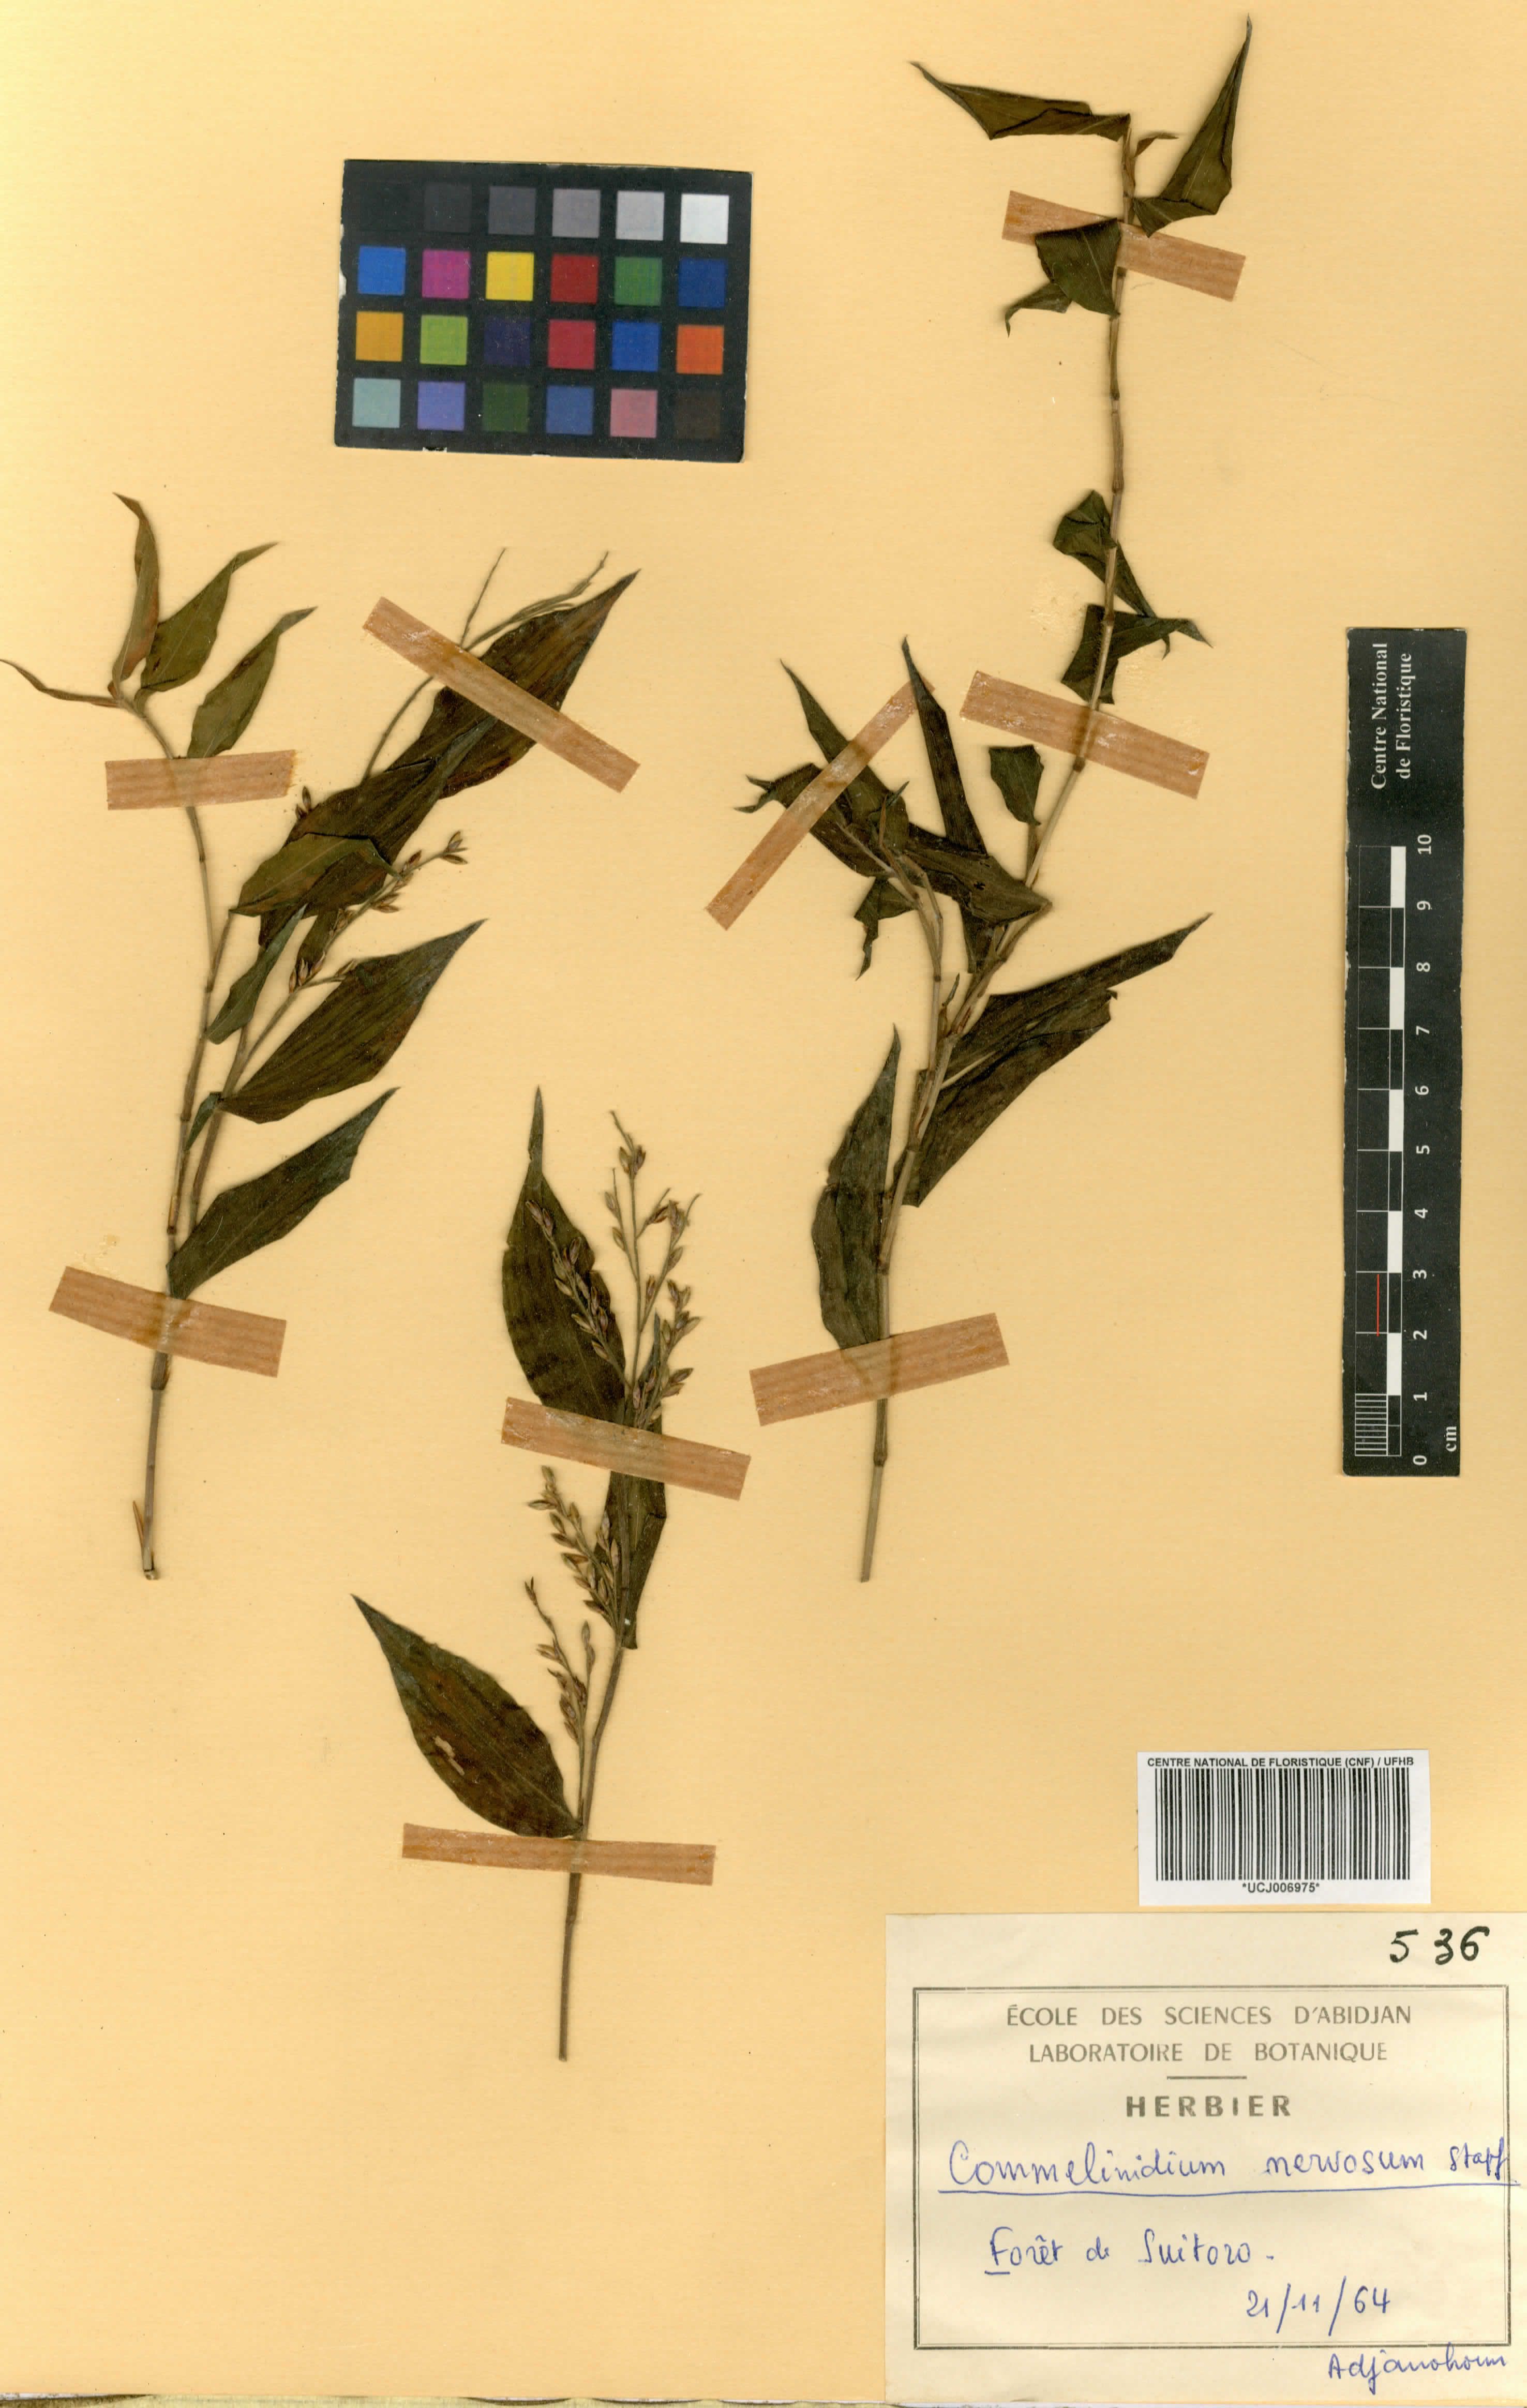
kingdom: Plantae
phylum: Tracheophyta
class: Liliopsida
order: Poales
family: Poaceae
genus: Acroceras
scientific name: Acroceras gabunense
